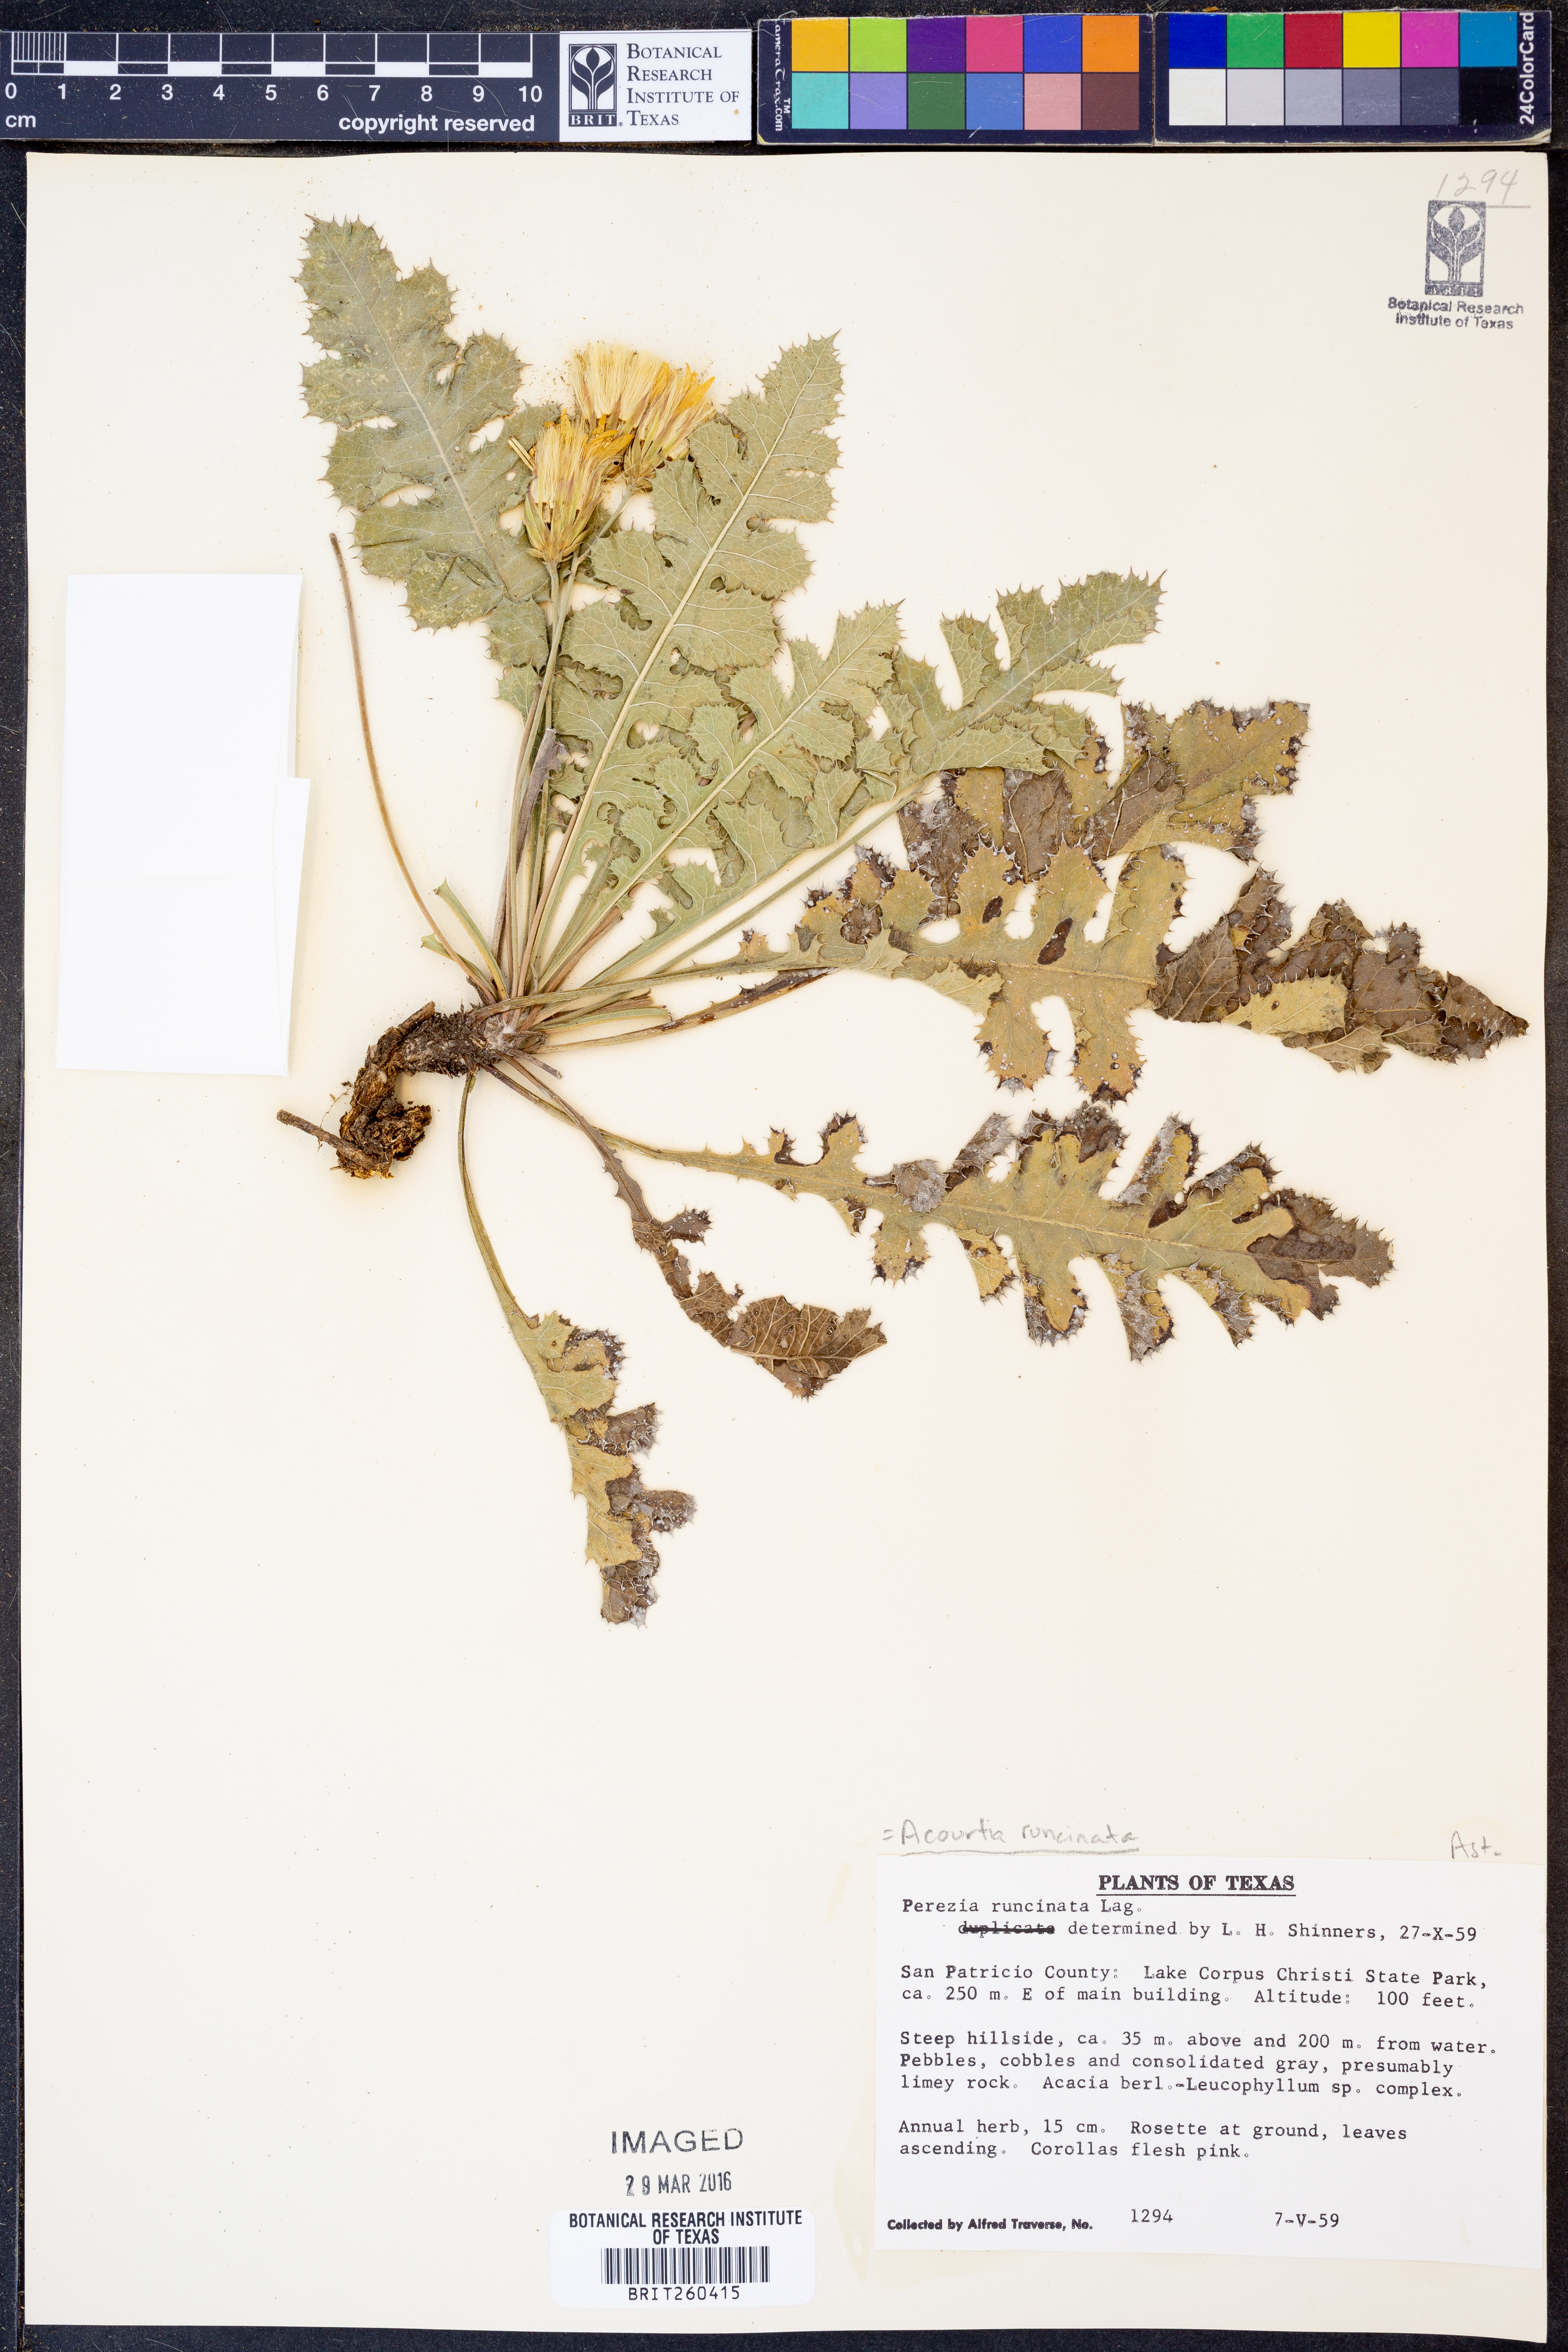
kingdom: Plantae
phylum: Tracheophyta
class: Magnoliopsida
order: Asterales
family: Asteraceae
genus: Acourtia
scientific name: Acourtia runcinata
